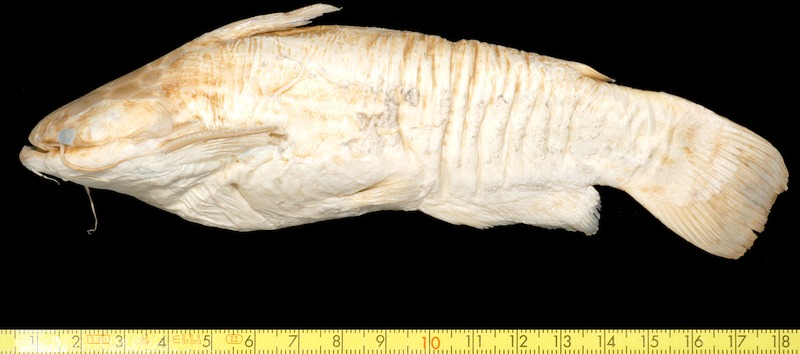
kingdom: Animalia
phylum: Chordata
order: Cypriniformes
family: Cyprinidae
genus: Scardinius
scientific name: Scardinius erythrophthalmus
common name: Rudd
